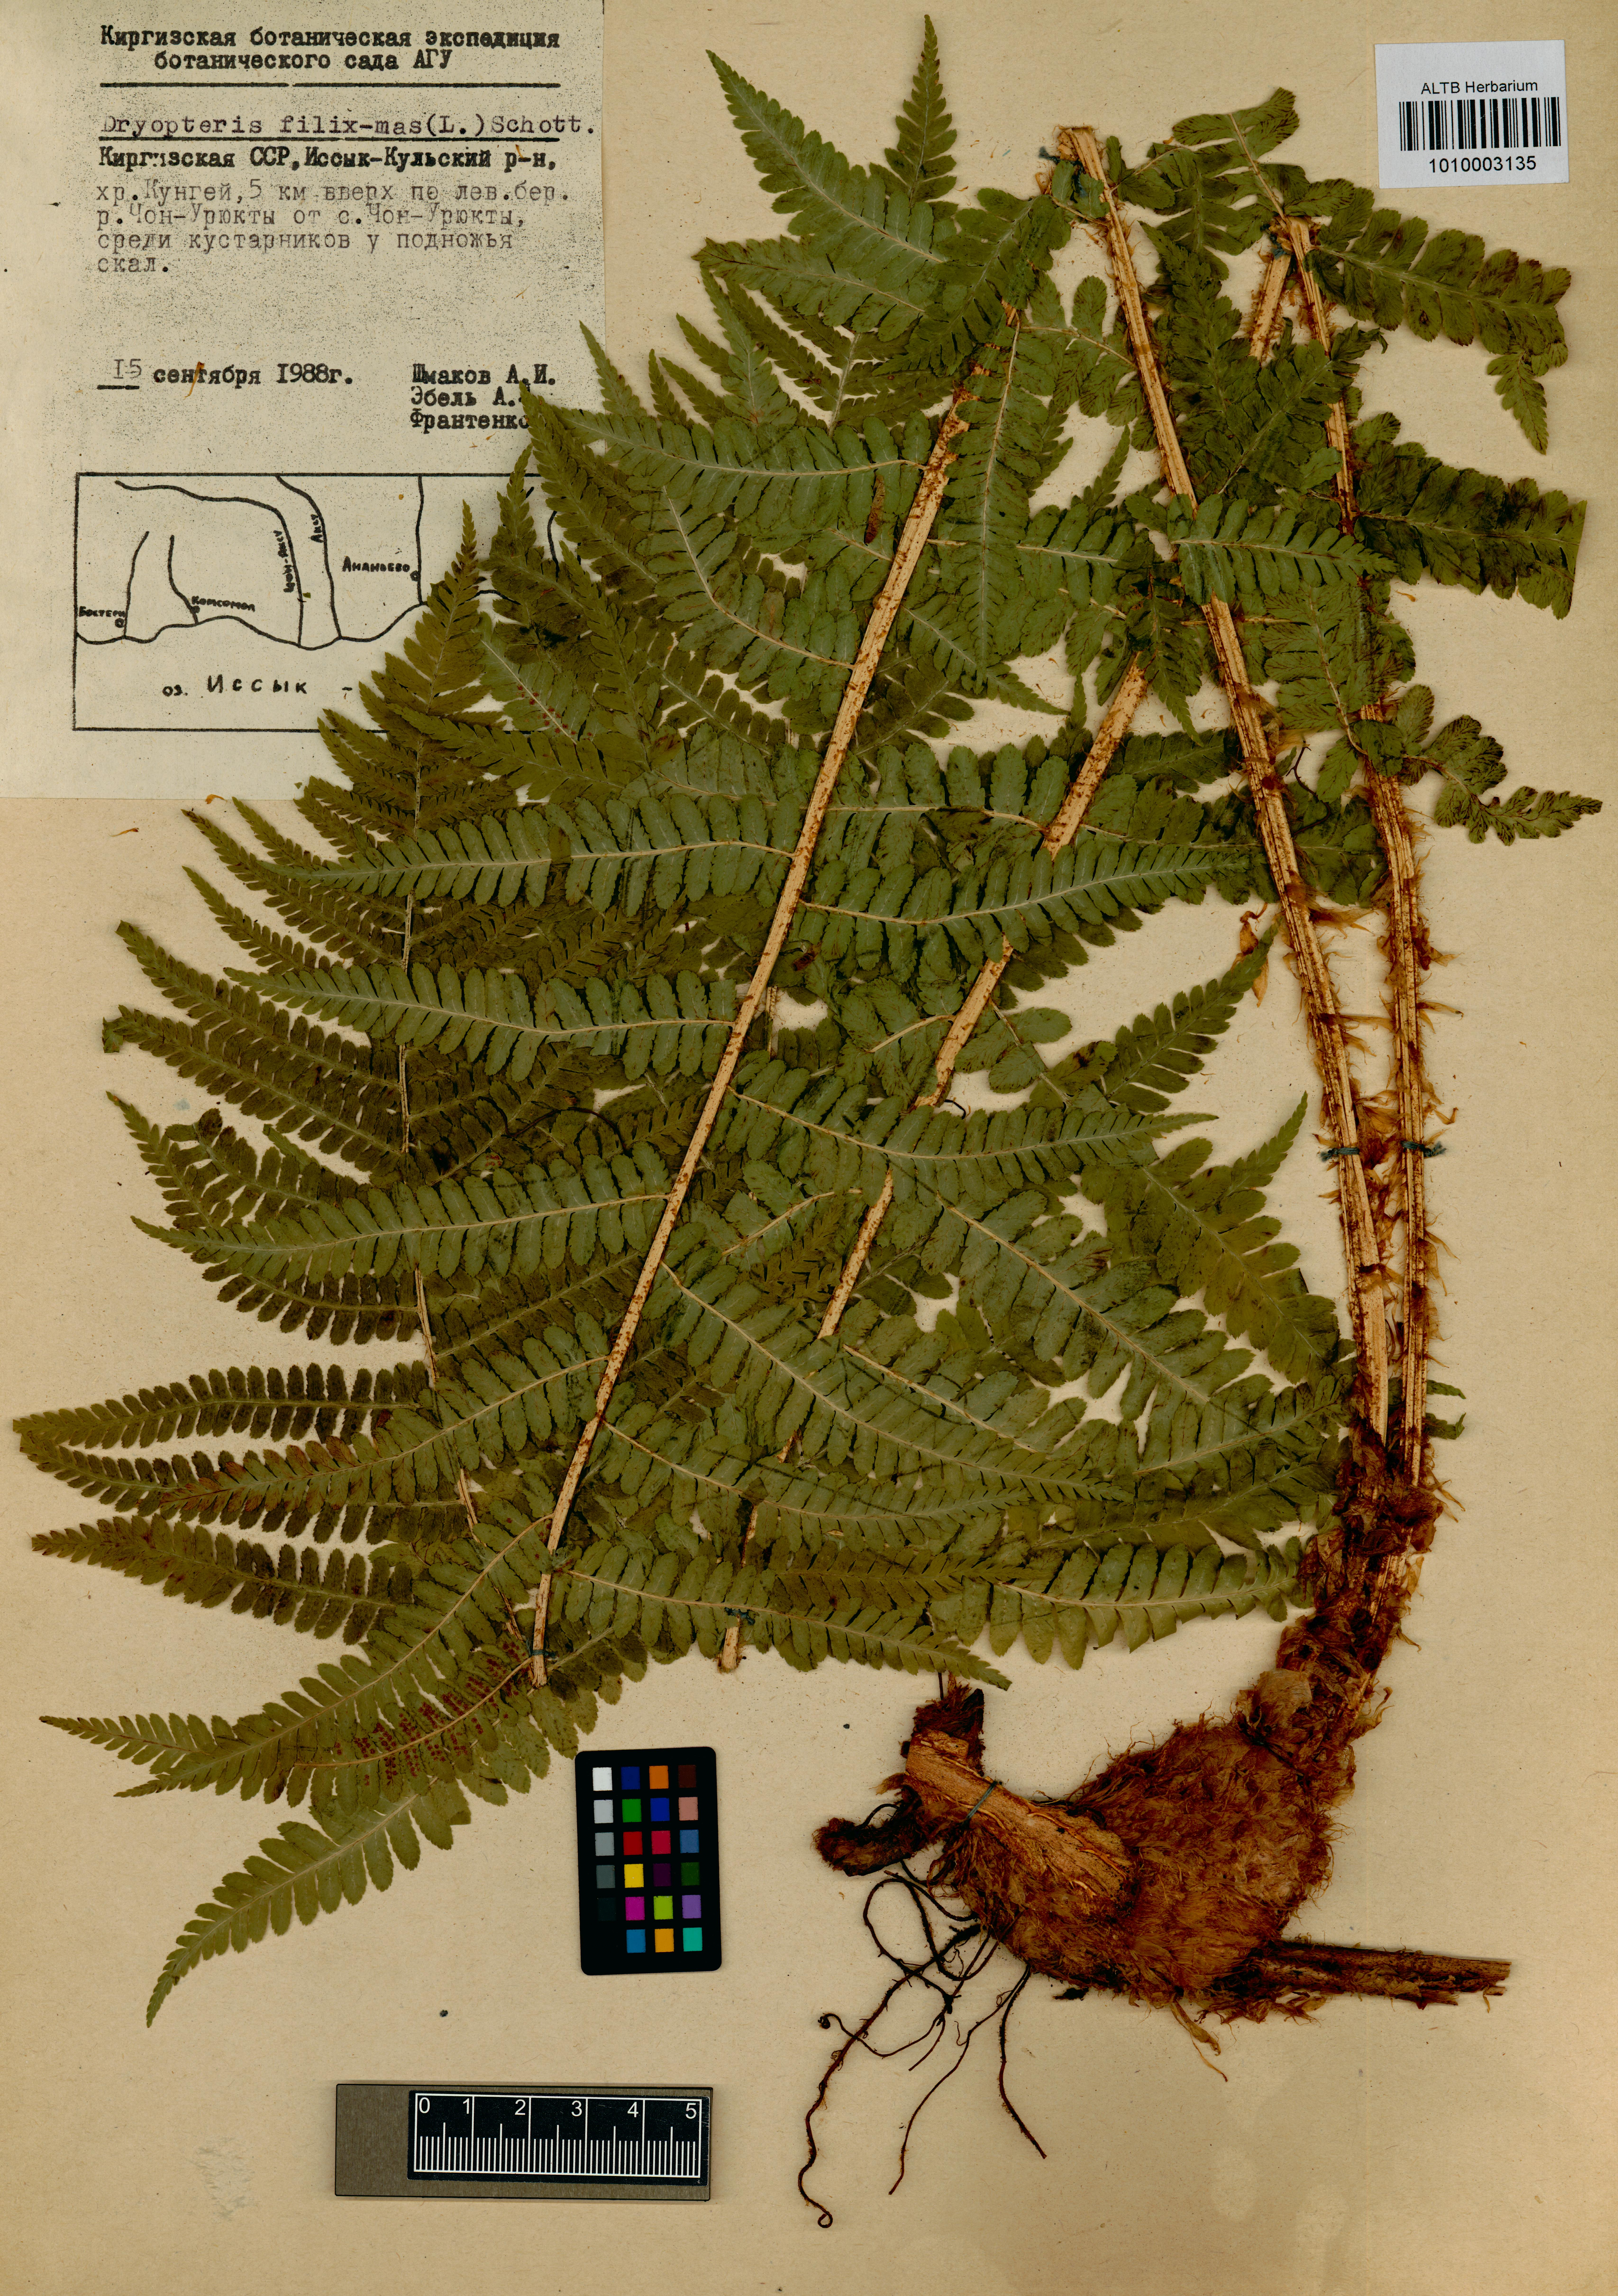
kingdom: Plantae
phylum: Tracheophyta
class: Polypodiopsida
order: Polypodiales
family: Dryopteridaceae
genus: Dryopteris
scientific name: Dryopteris filix-mas
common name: Male fern
